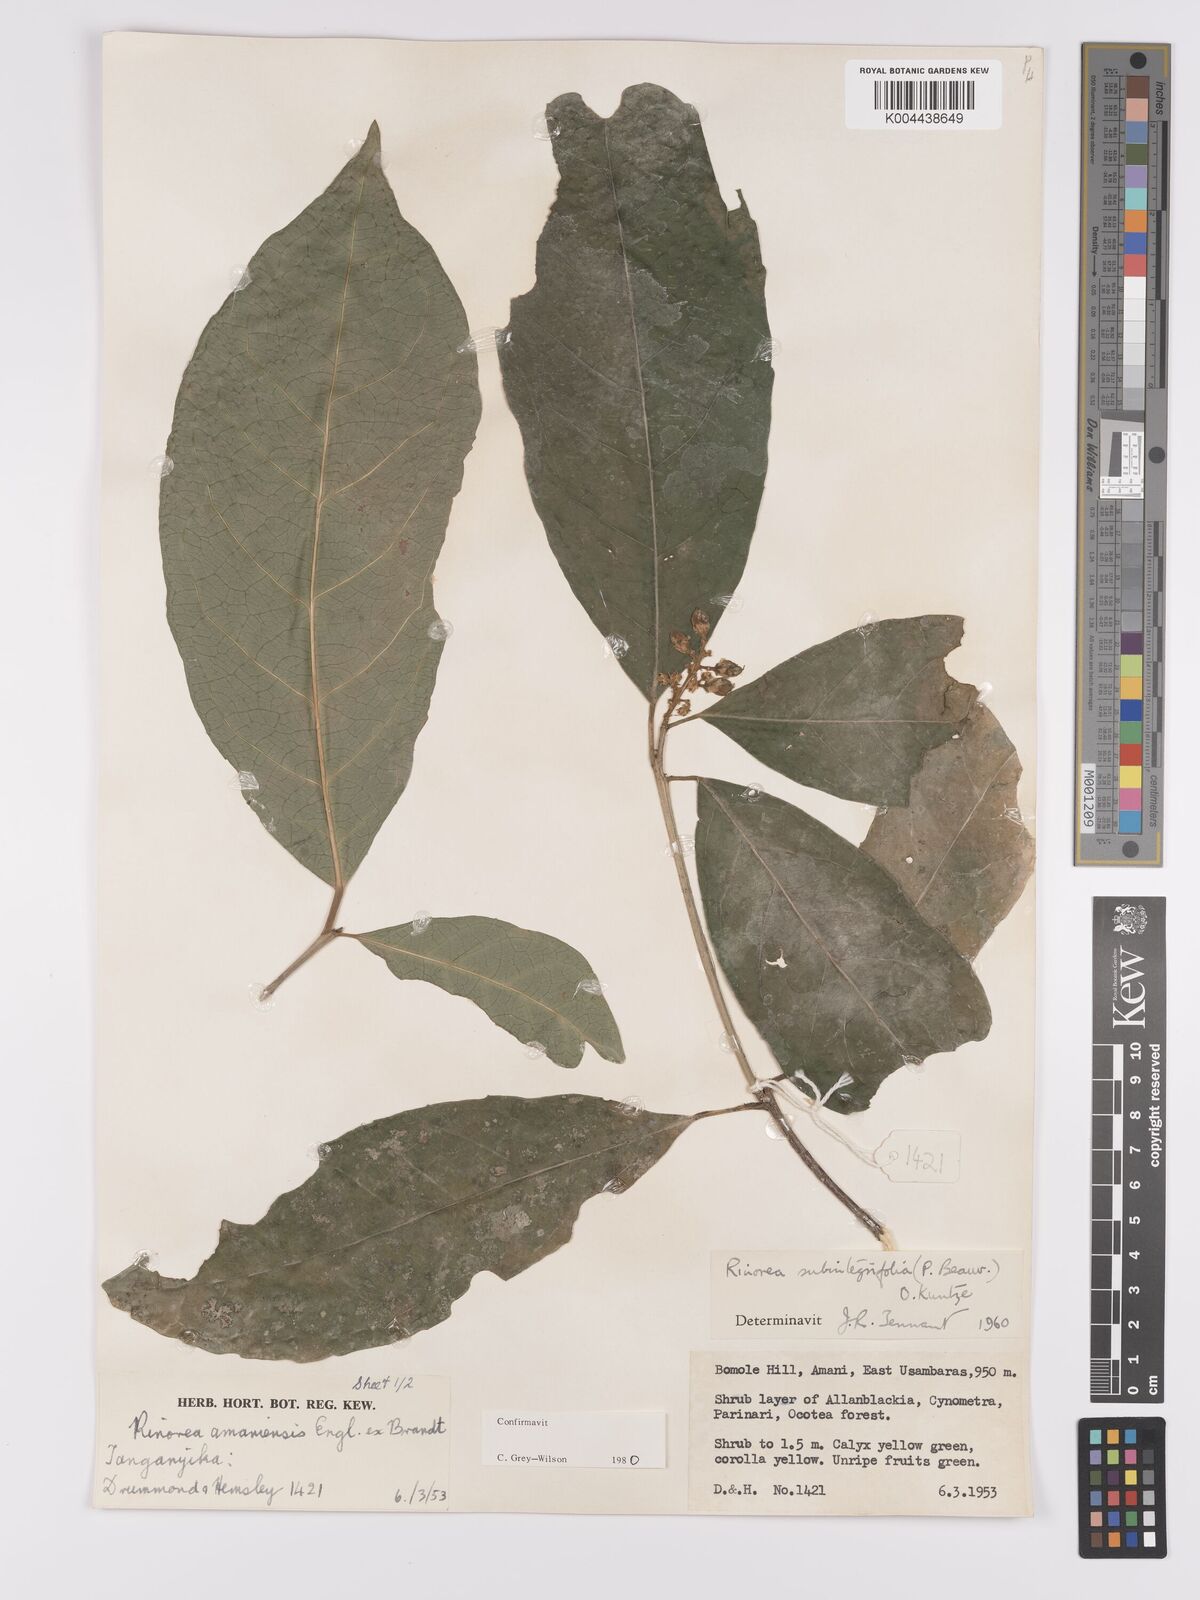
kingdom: Plantae
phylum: Tracheophyta
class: Magnoliopsida
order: Apiales
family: Pittosporaceae
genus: Marianthus
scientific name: Marianthus coeruleopunctatus
